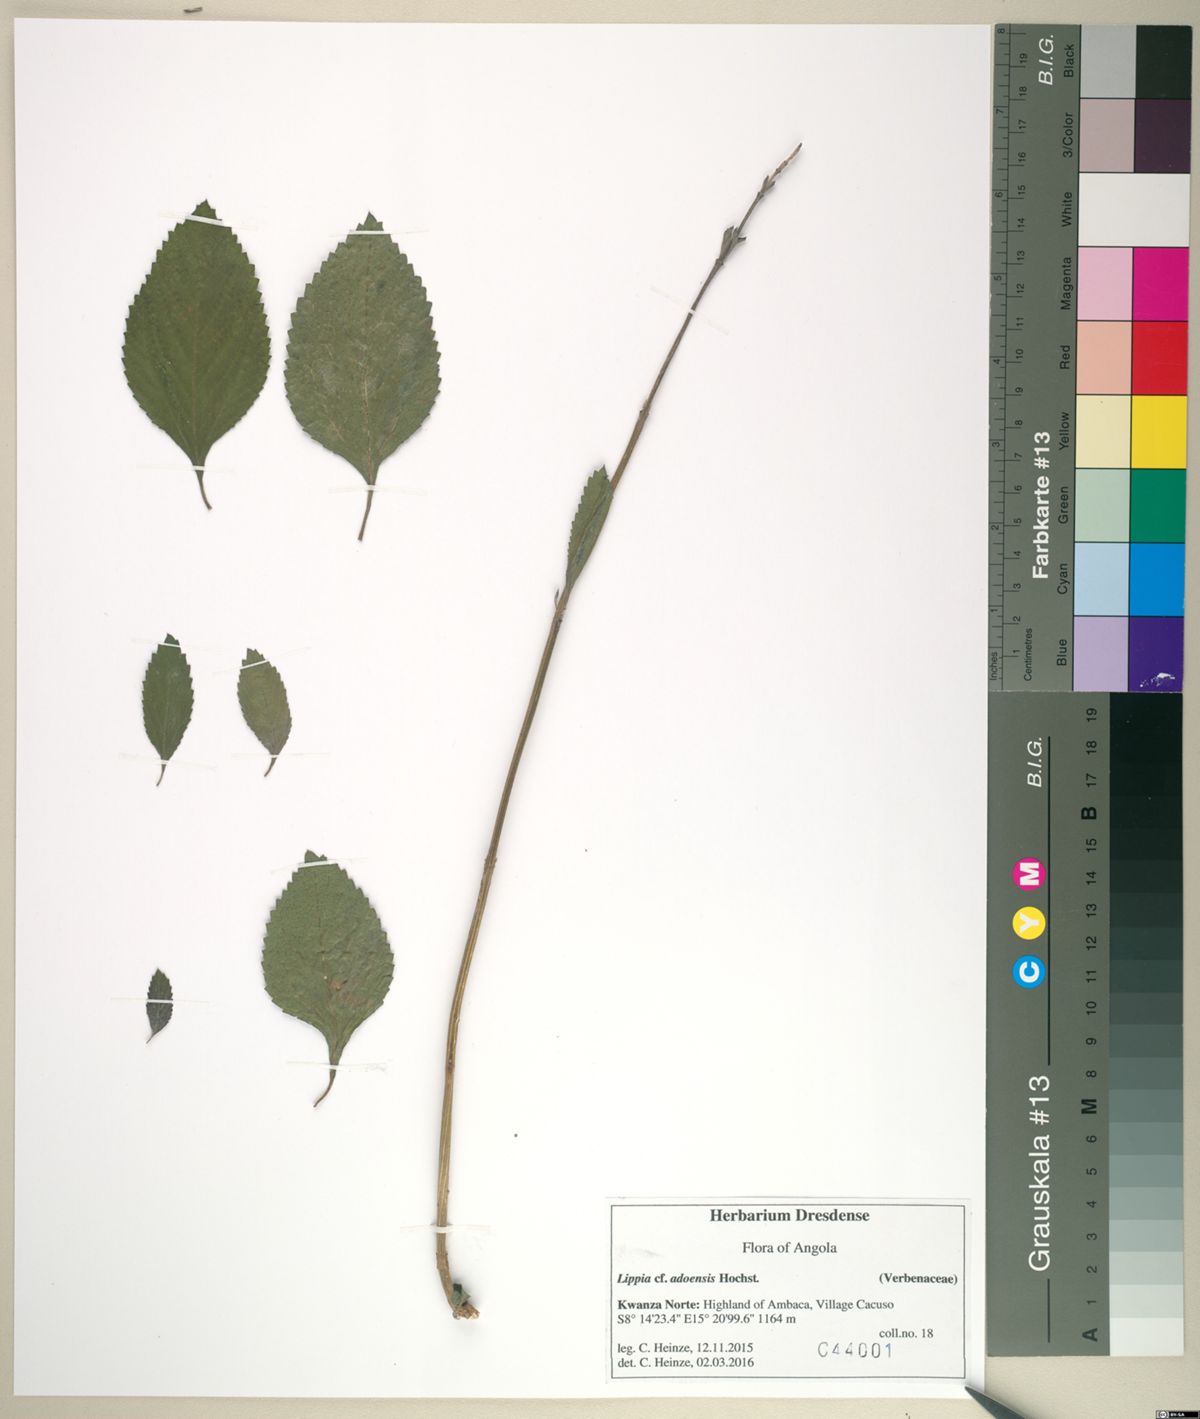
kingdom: Plantae
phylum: Tracheophyta
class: Magnoliopsida
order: Lamiales
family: Verbenaceae
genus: Lippia
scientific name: Lippia abyssinica
